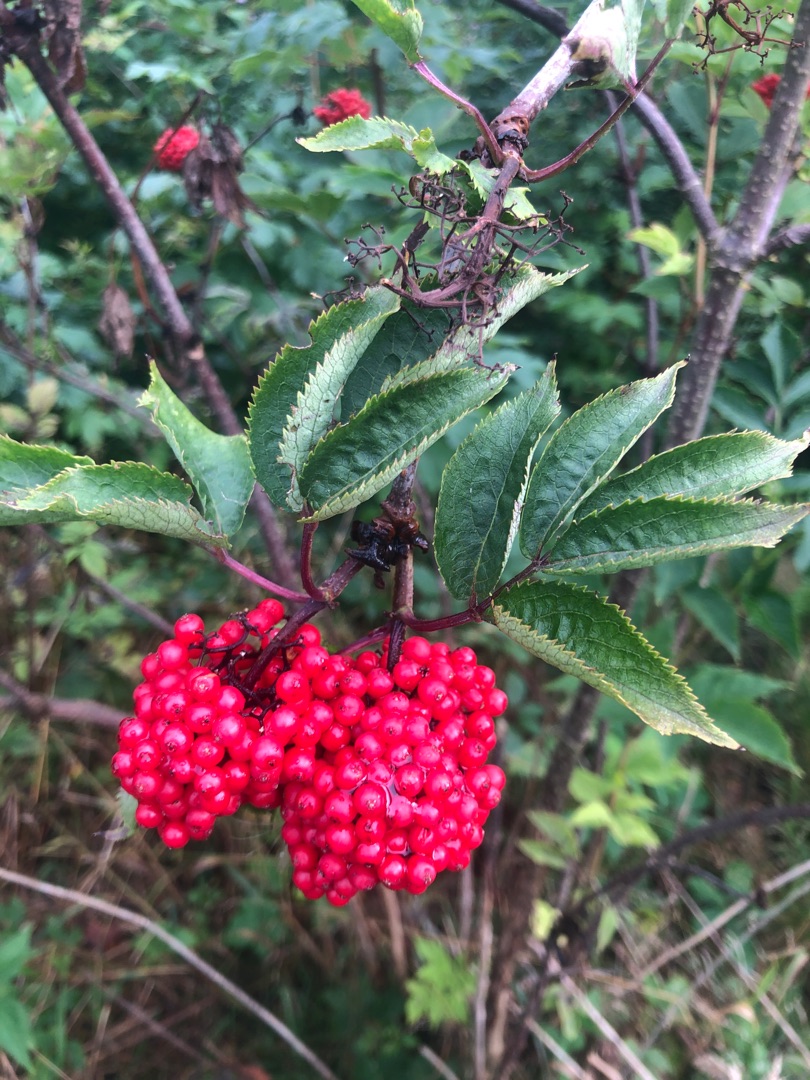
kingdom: Plantae
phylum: Tracheophyta
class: Magnoliopsida
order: Dipsacales
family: Viburnaceae
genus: Sambucus
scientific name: Sambucus racemosa
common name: Drue-hyld
